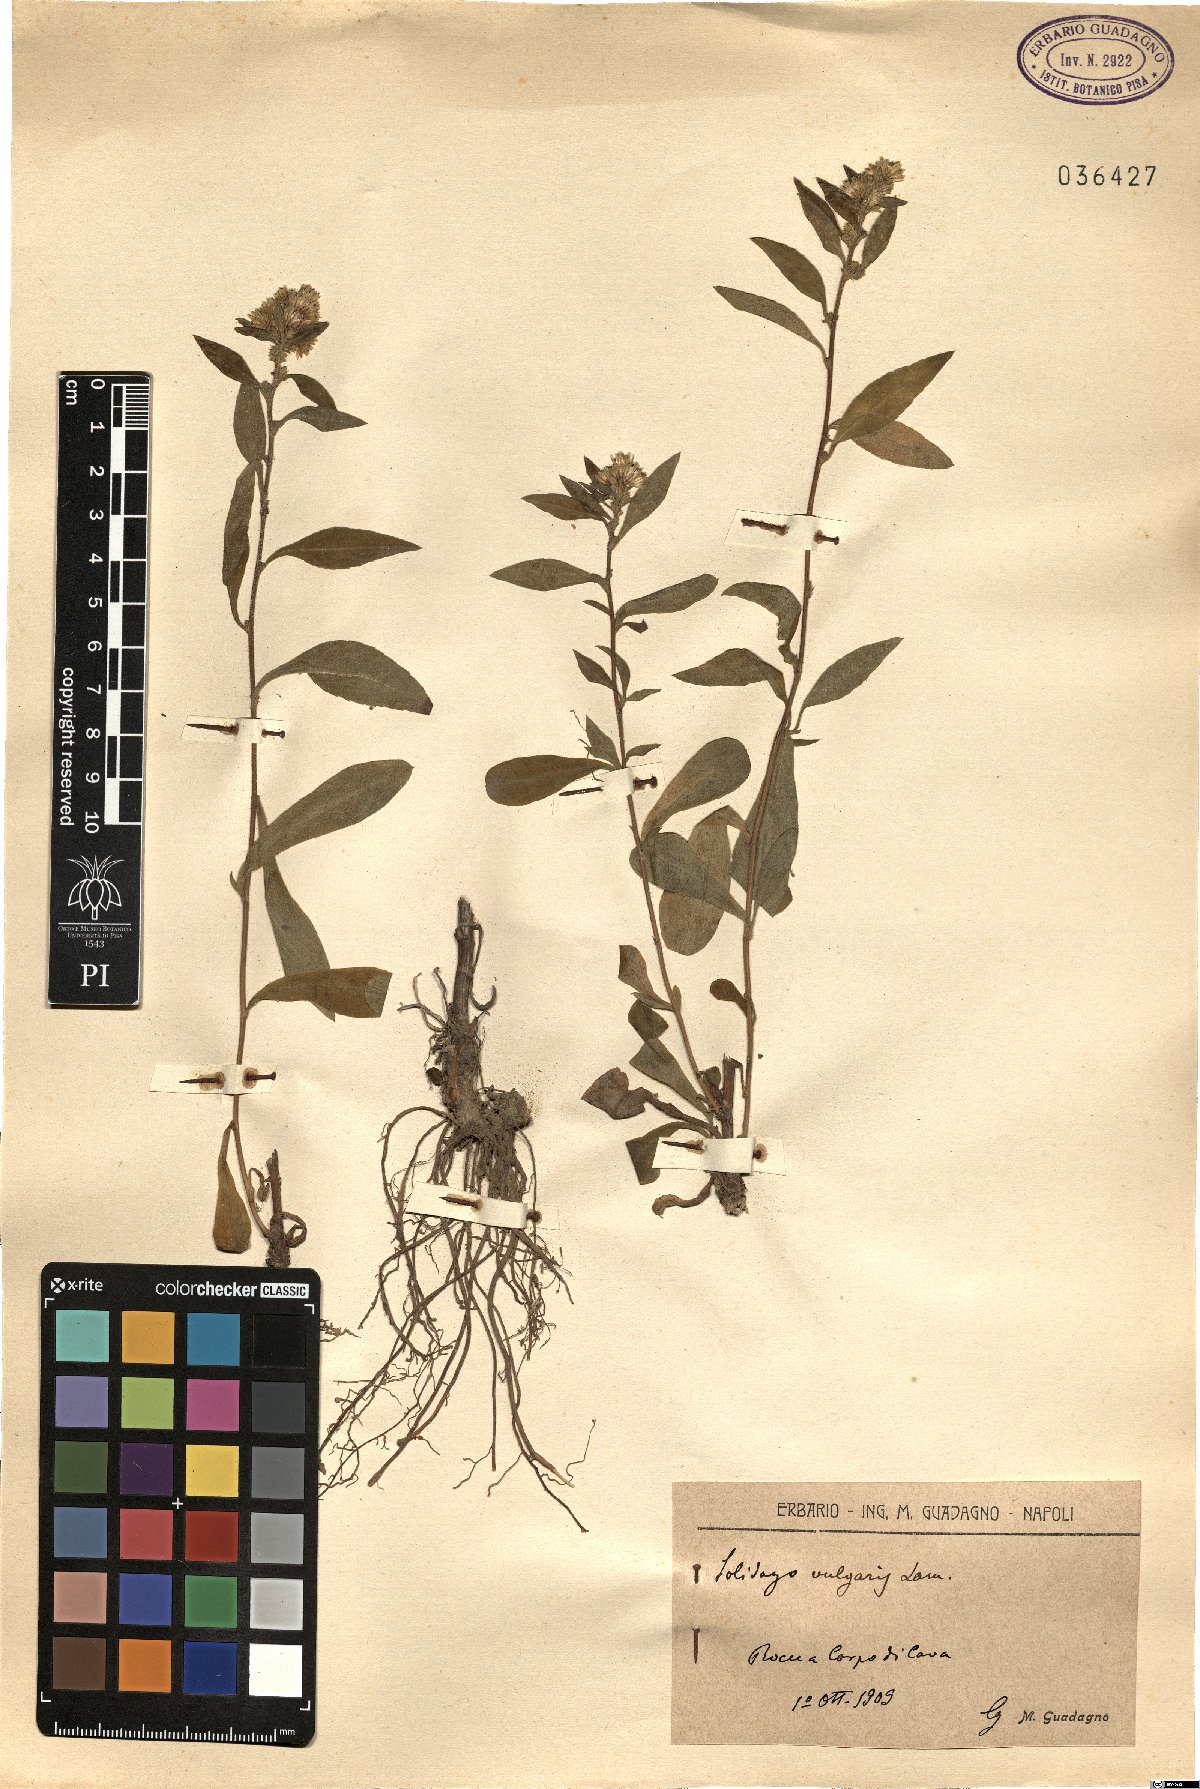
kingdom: Plantae
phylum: Tracheophyta
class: Magnoliopsida
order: Asterales
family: Asteraceae
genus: Solidago
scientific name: Solidago virgaurea
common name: Goldenrod
